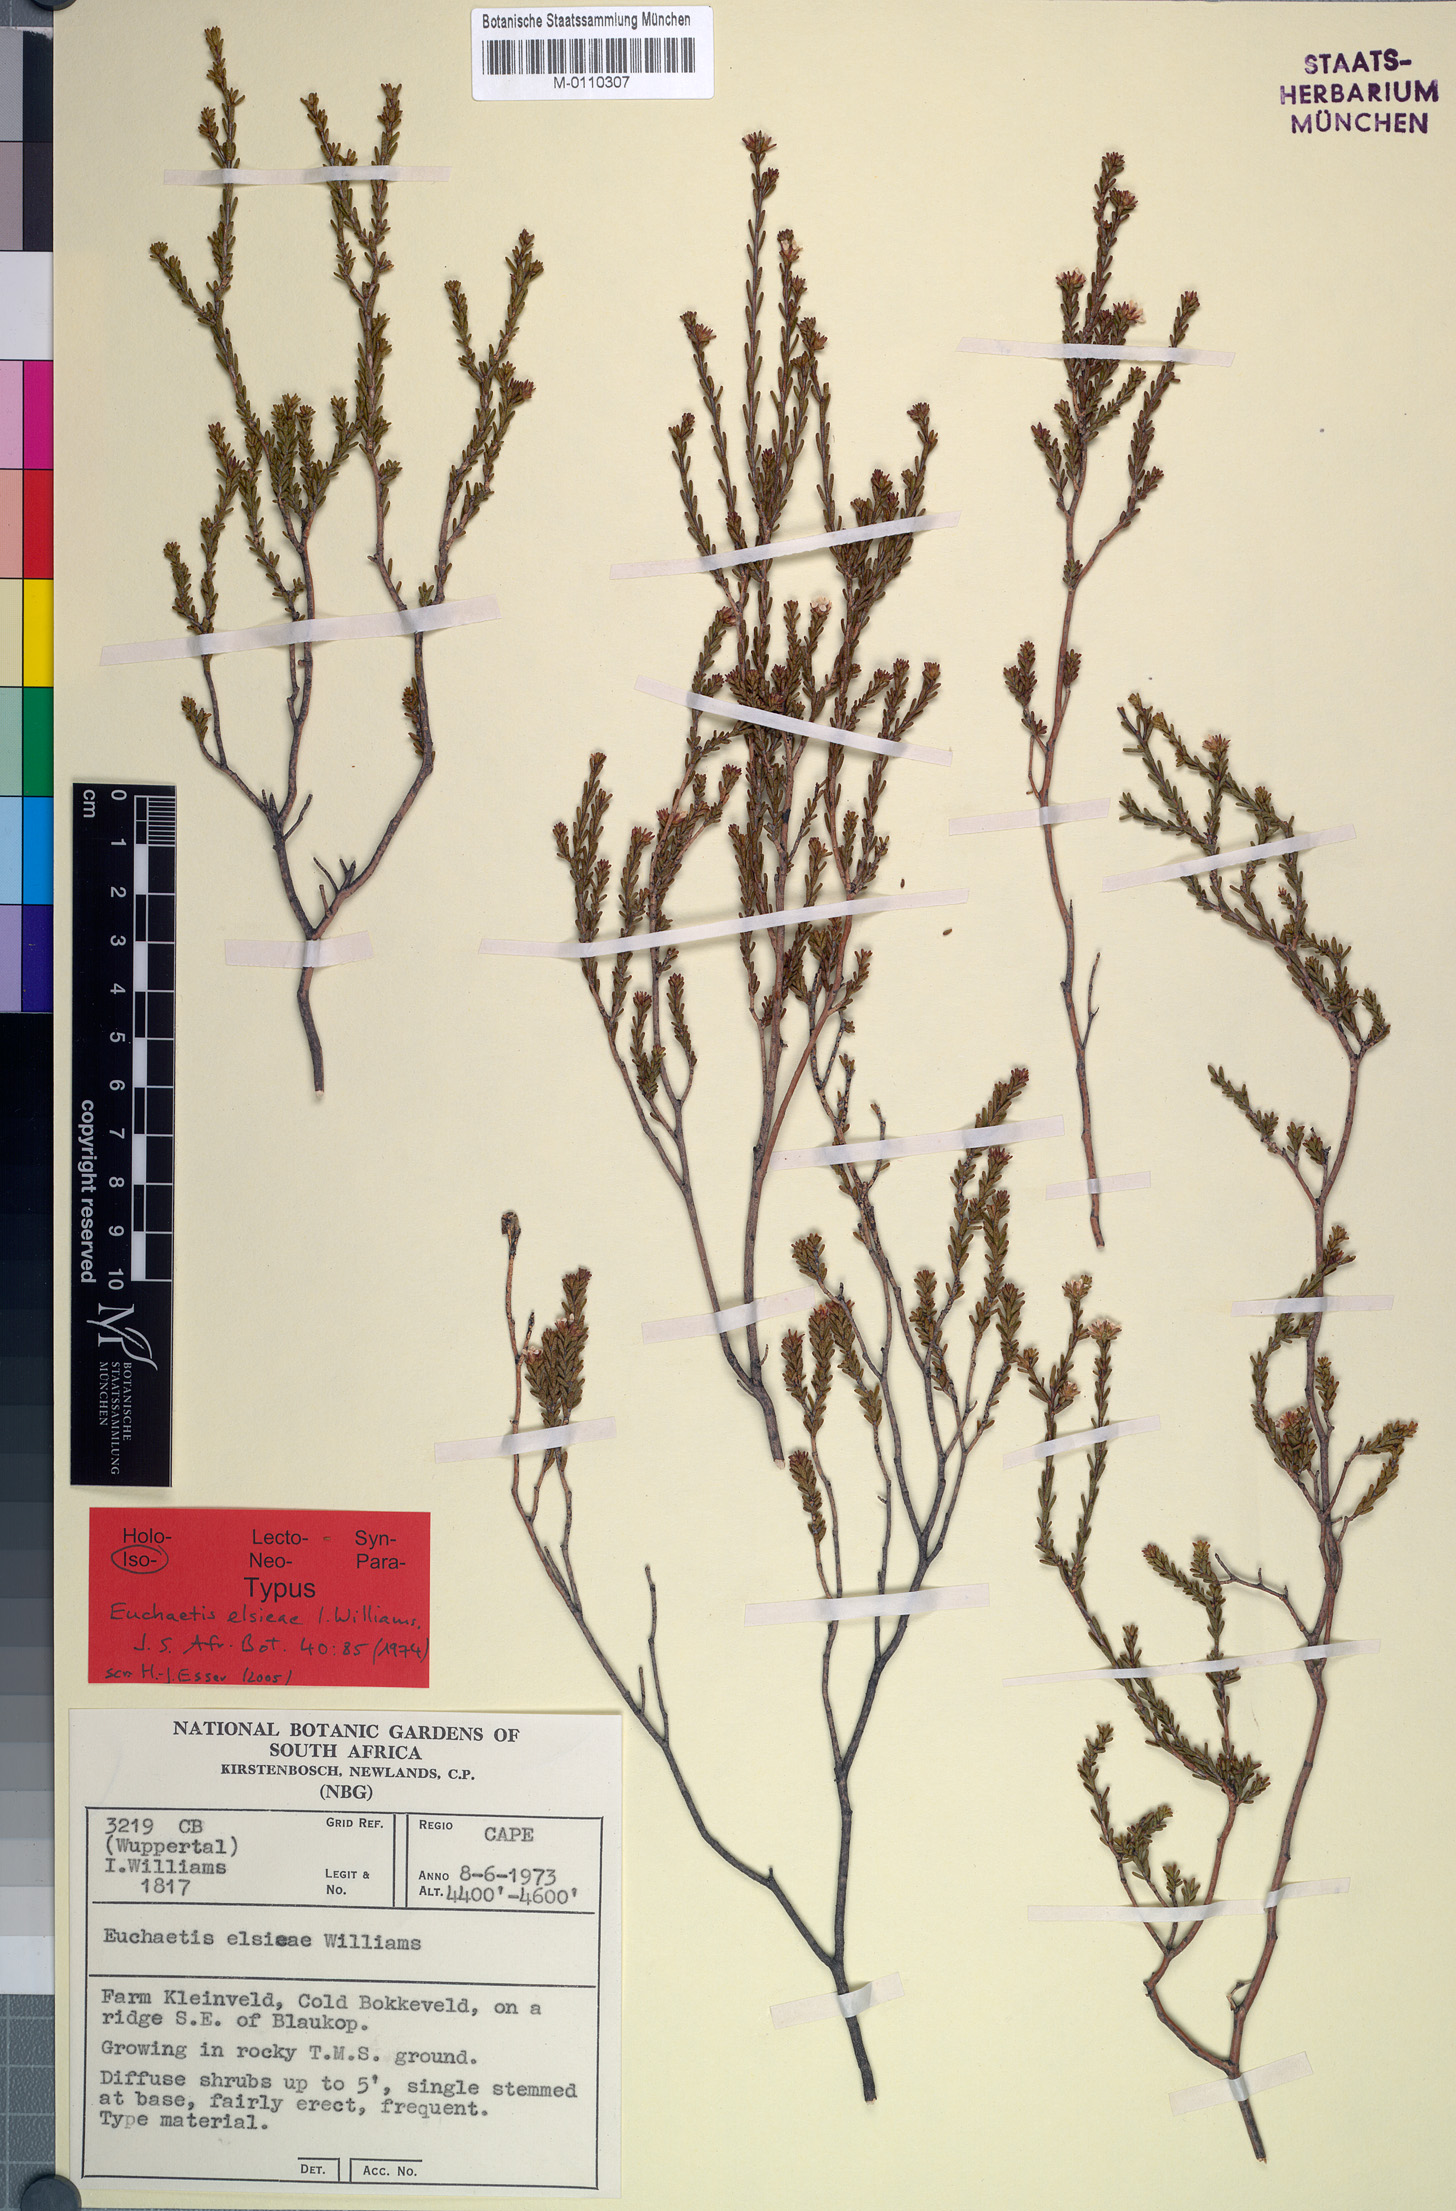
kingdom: Plantae
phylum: Tracheophyta
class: Magnoliopsida
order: Sapindales
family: Rutaceae
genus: Euchaetis
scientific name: Euchaetis elsieae
